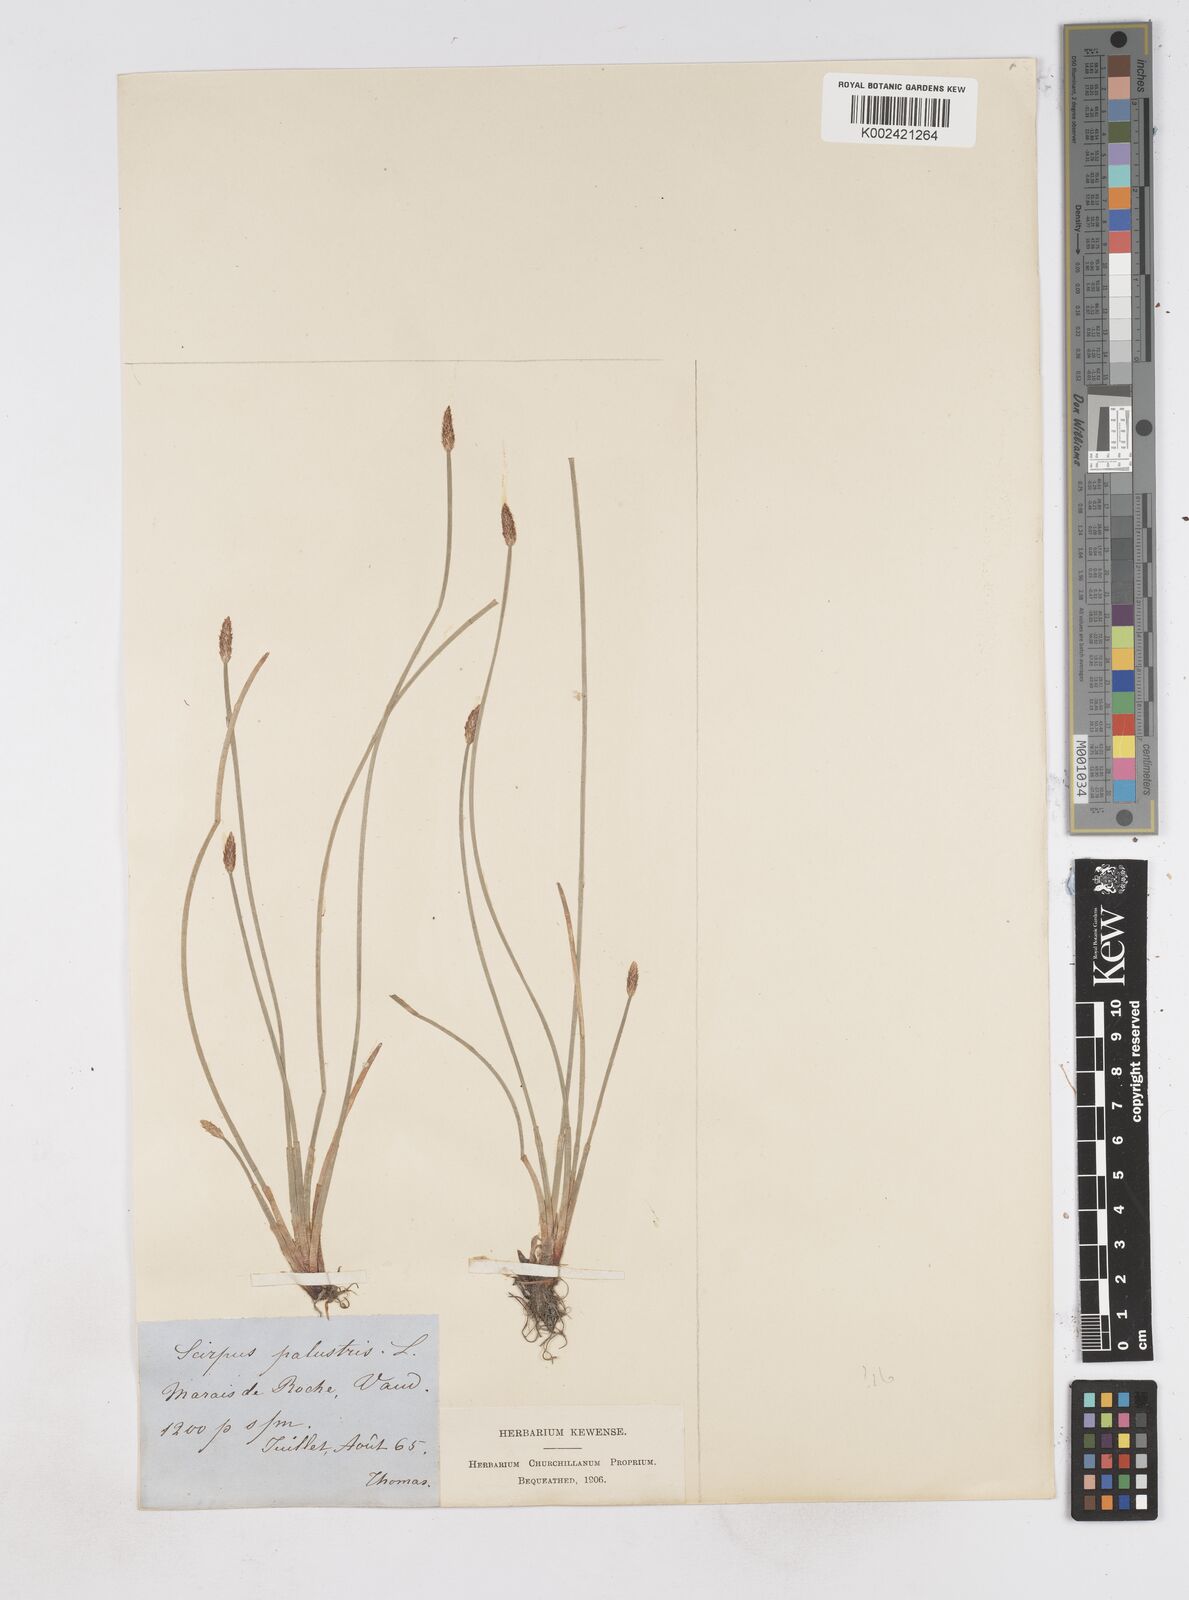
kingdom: Plantae
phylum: Tracheophyta
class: Liliopsida
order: Poales
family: Cyperaceae
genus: Eleocharis
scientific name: Eleocharis palustris
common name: Common spike-rush
